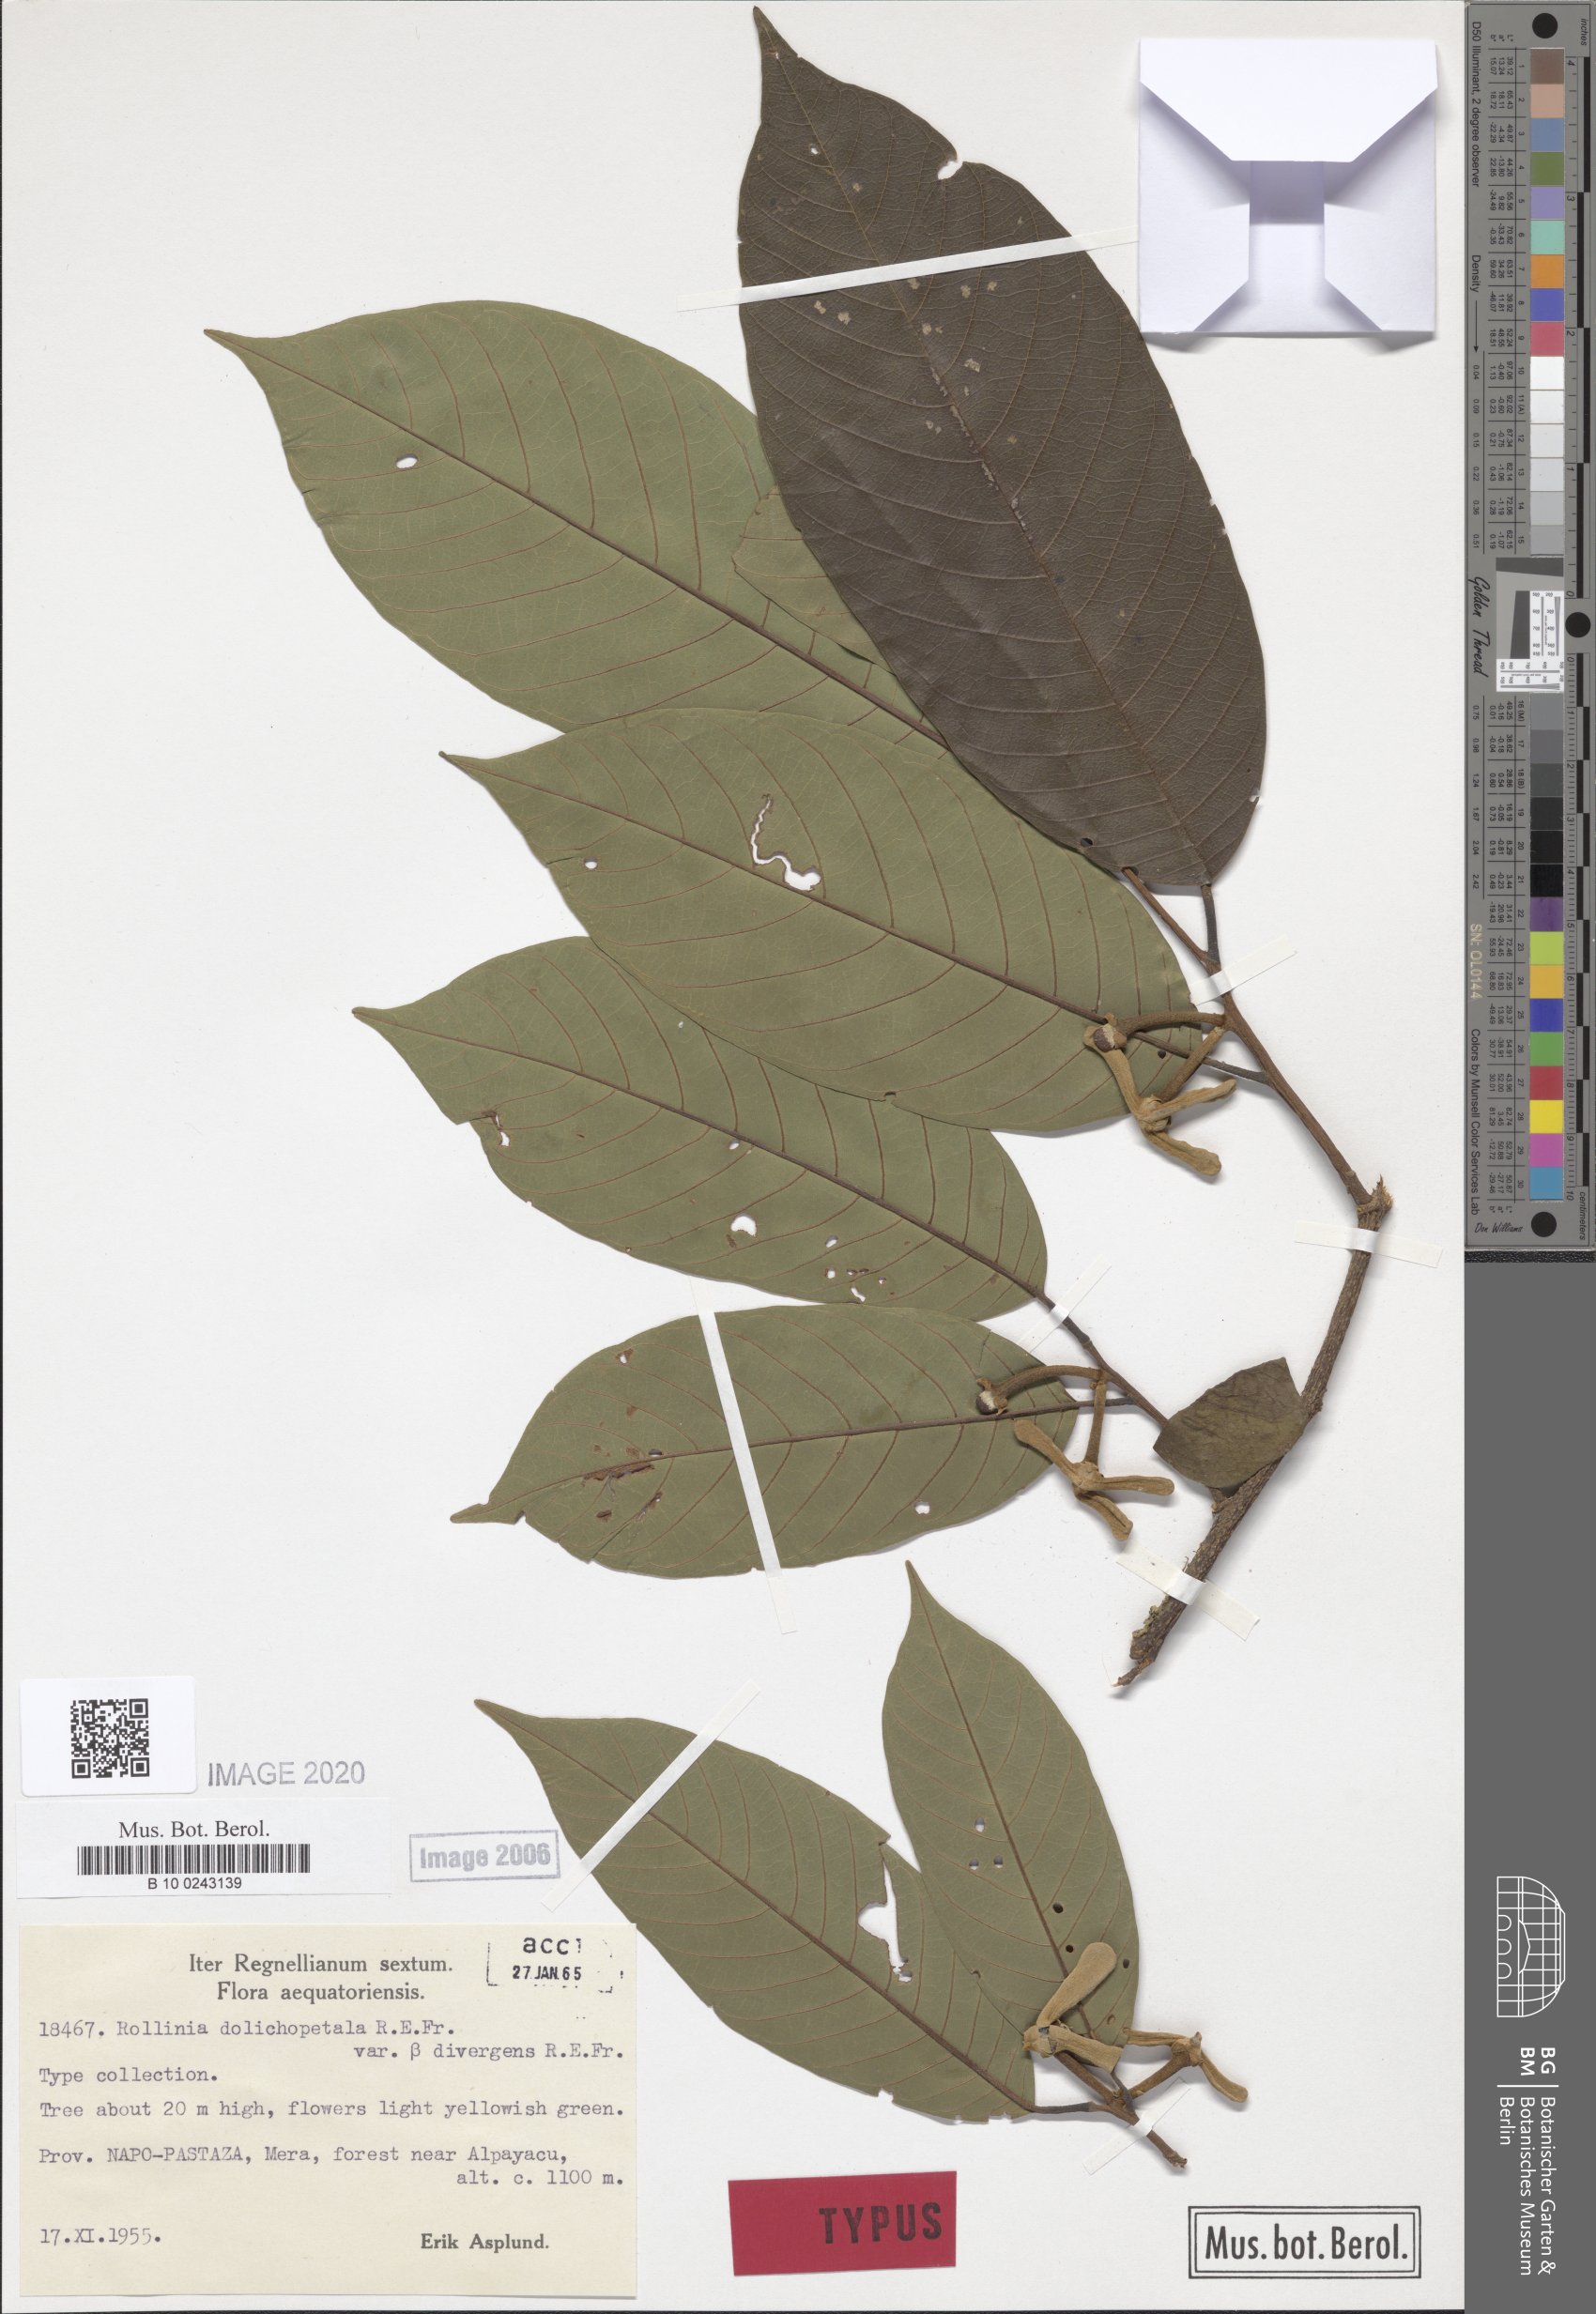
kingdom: Plantae
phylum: Tracheophyta
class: Magnoliopsida
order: Magnoliales
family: Annonaceae
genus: Annona
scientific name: Annona dolichopetala
